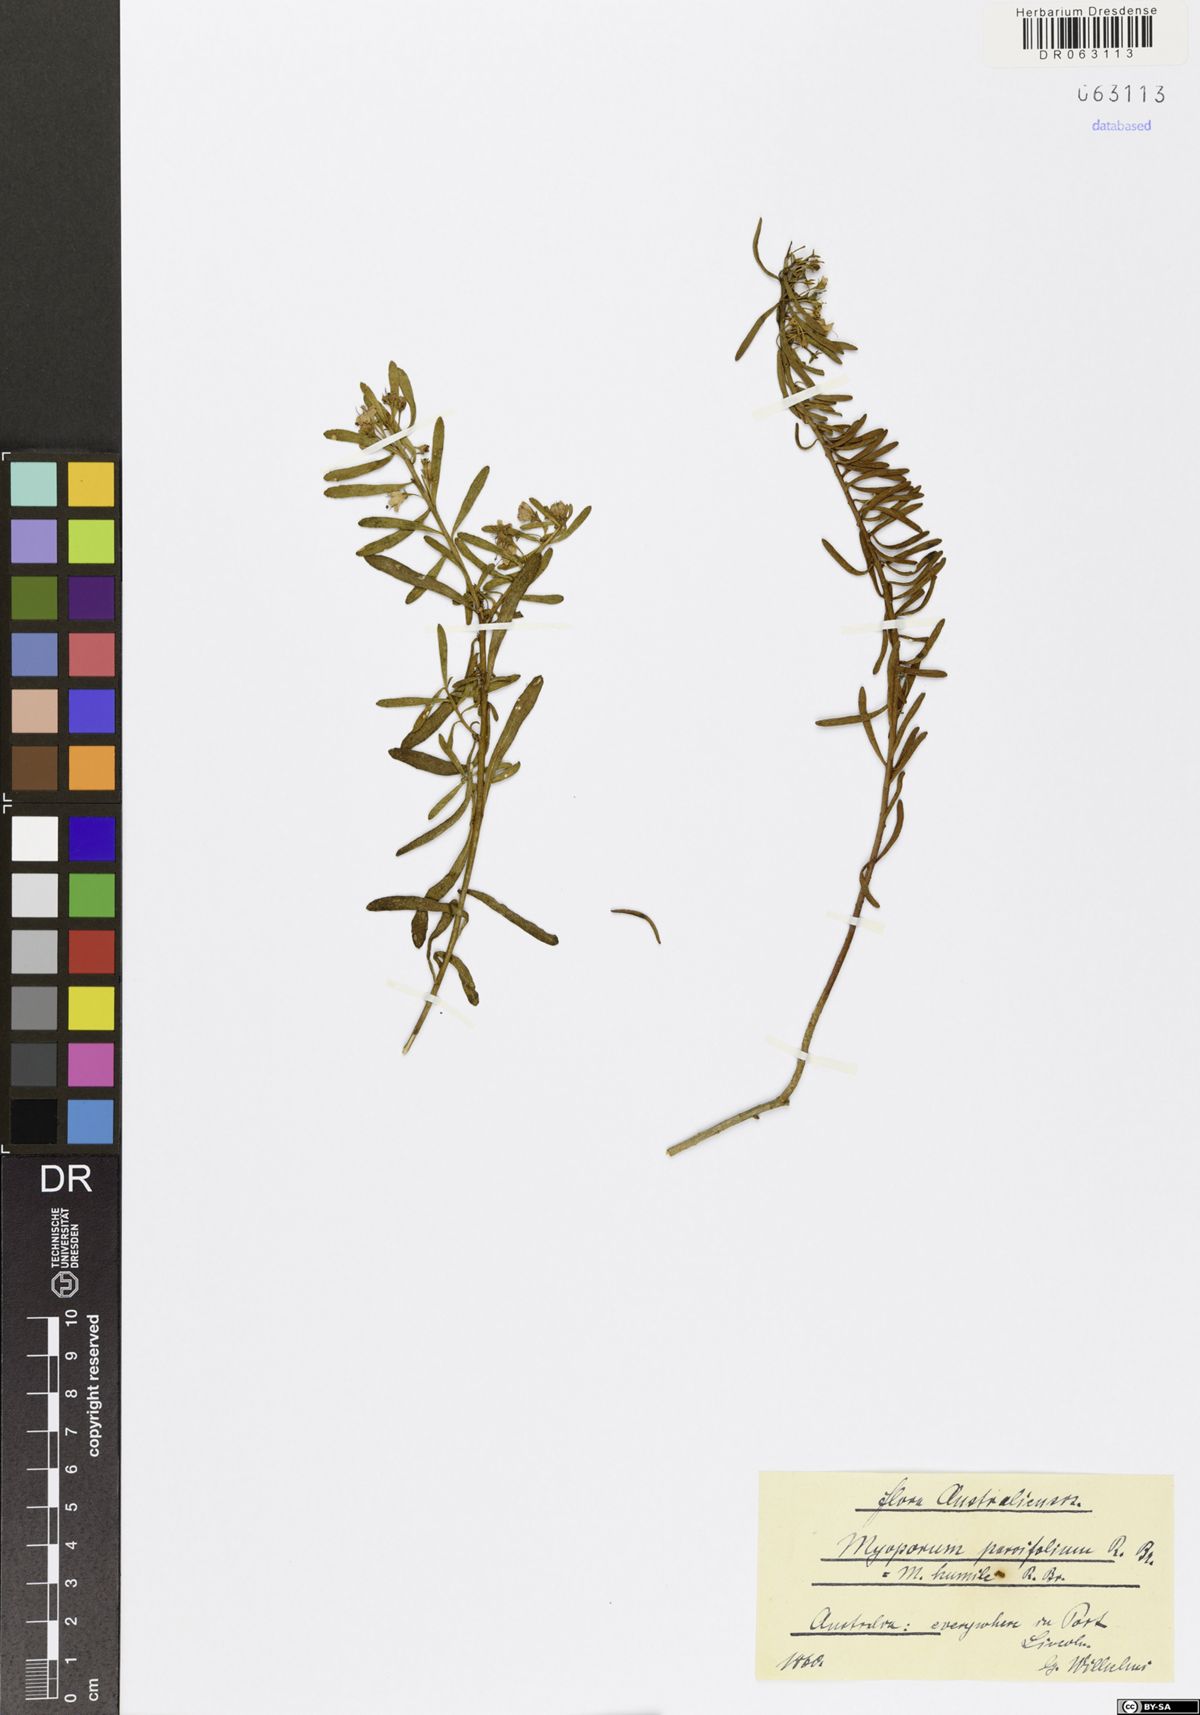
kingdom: Plantae
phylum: Tracheophyta
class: Magnoliopsida
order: Lamiales
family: Scrophulariaceae
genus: Myoporum
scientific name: Myoporum parvifolium
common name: Dwarf native-myrtle
